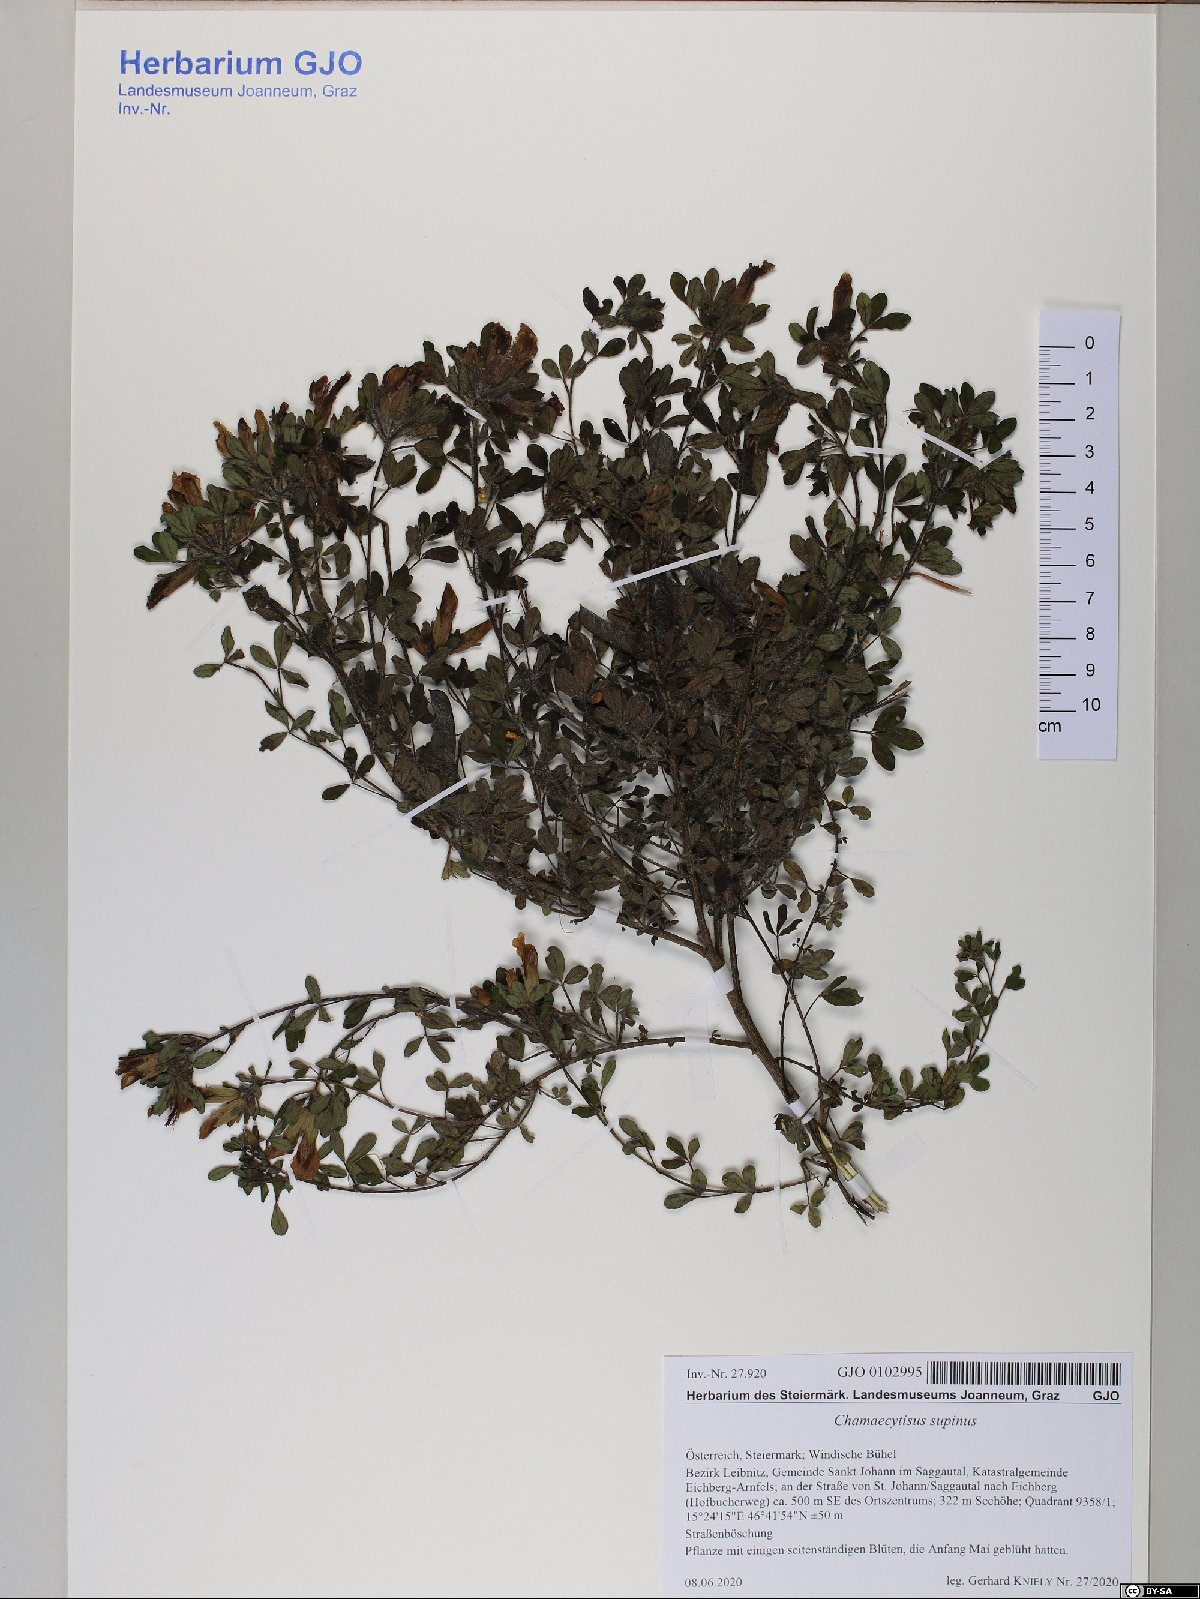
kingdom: Plantae
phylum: Tracheophyta
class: Magnoliopsida
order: Fabales
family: Fabaceae
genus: Chamaecytisus
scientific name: Chamaecytisus supinus
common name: Clustered broom
